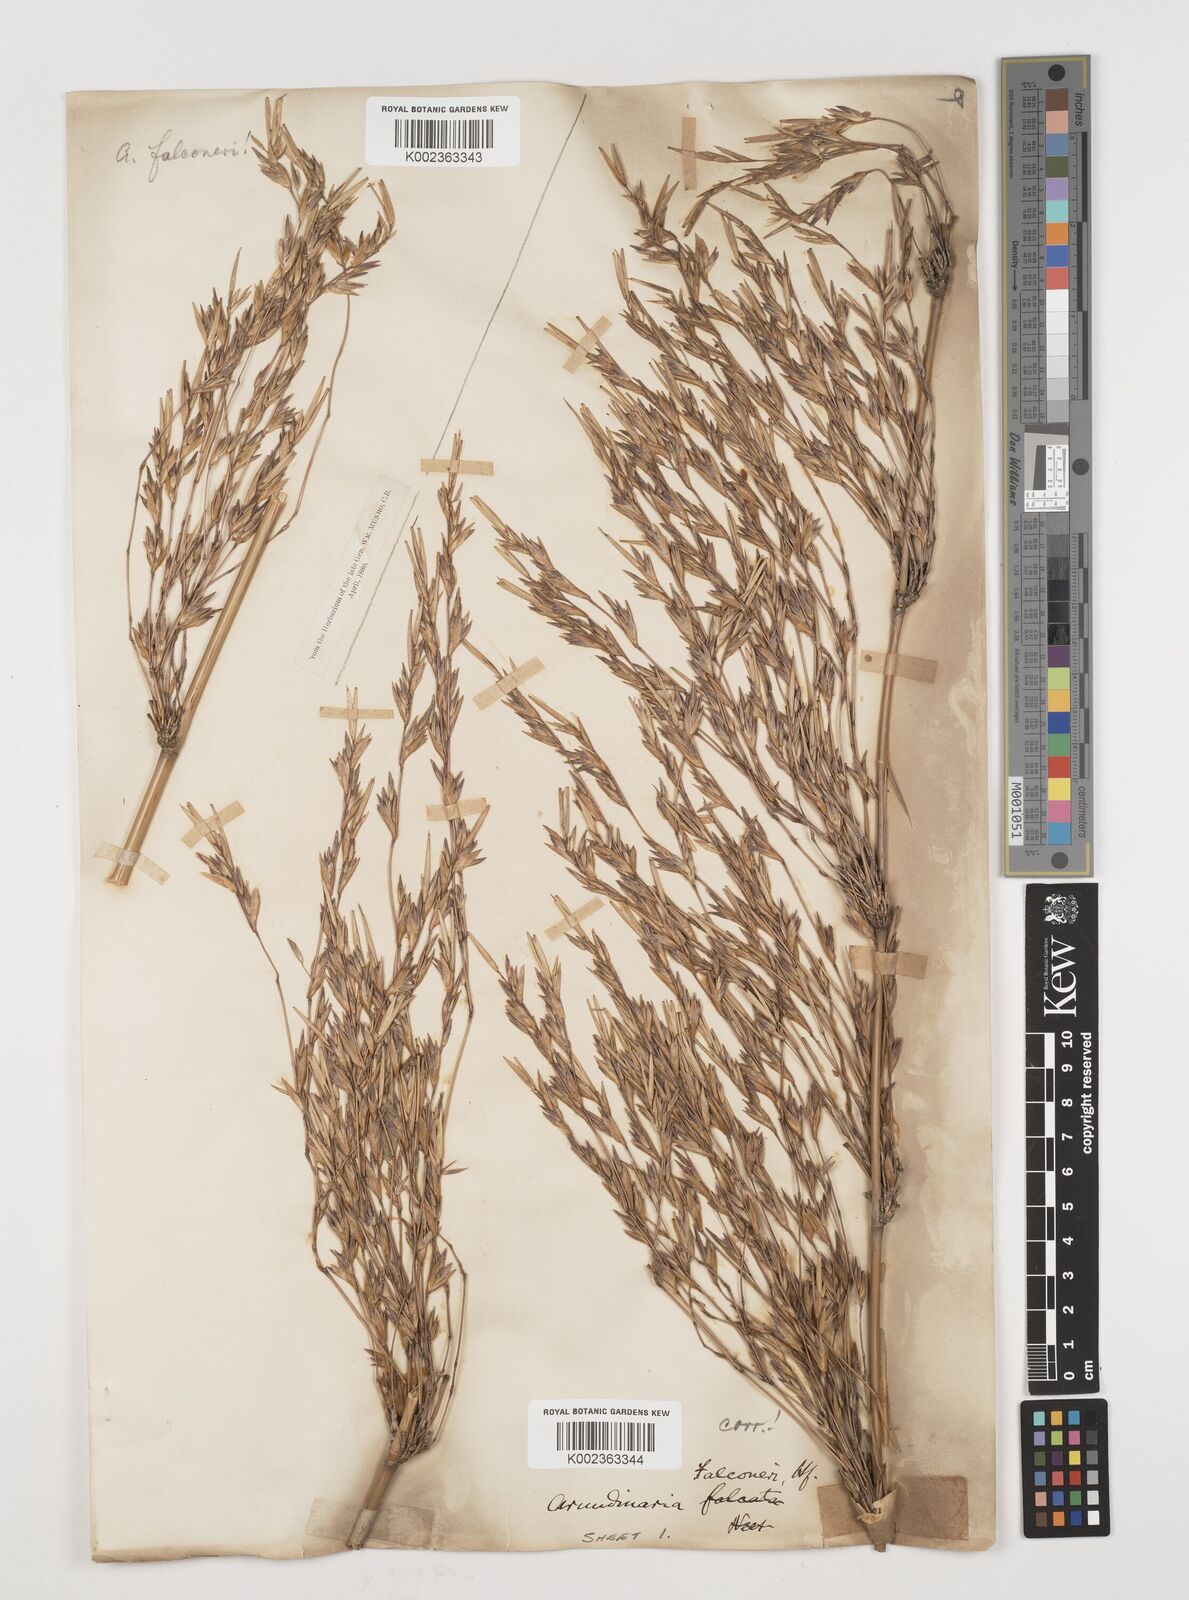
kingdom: Plantae
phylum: Tracheophyta
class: Liliopsida
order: Poales
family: Poaceae
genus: Himalayacalamus
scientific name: Himalayacalamus falconeri
